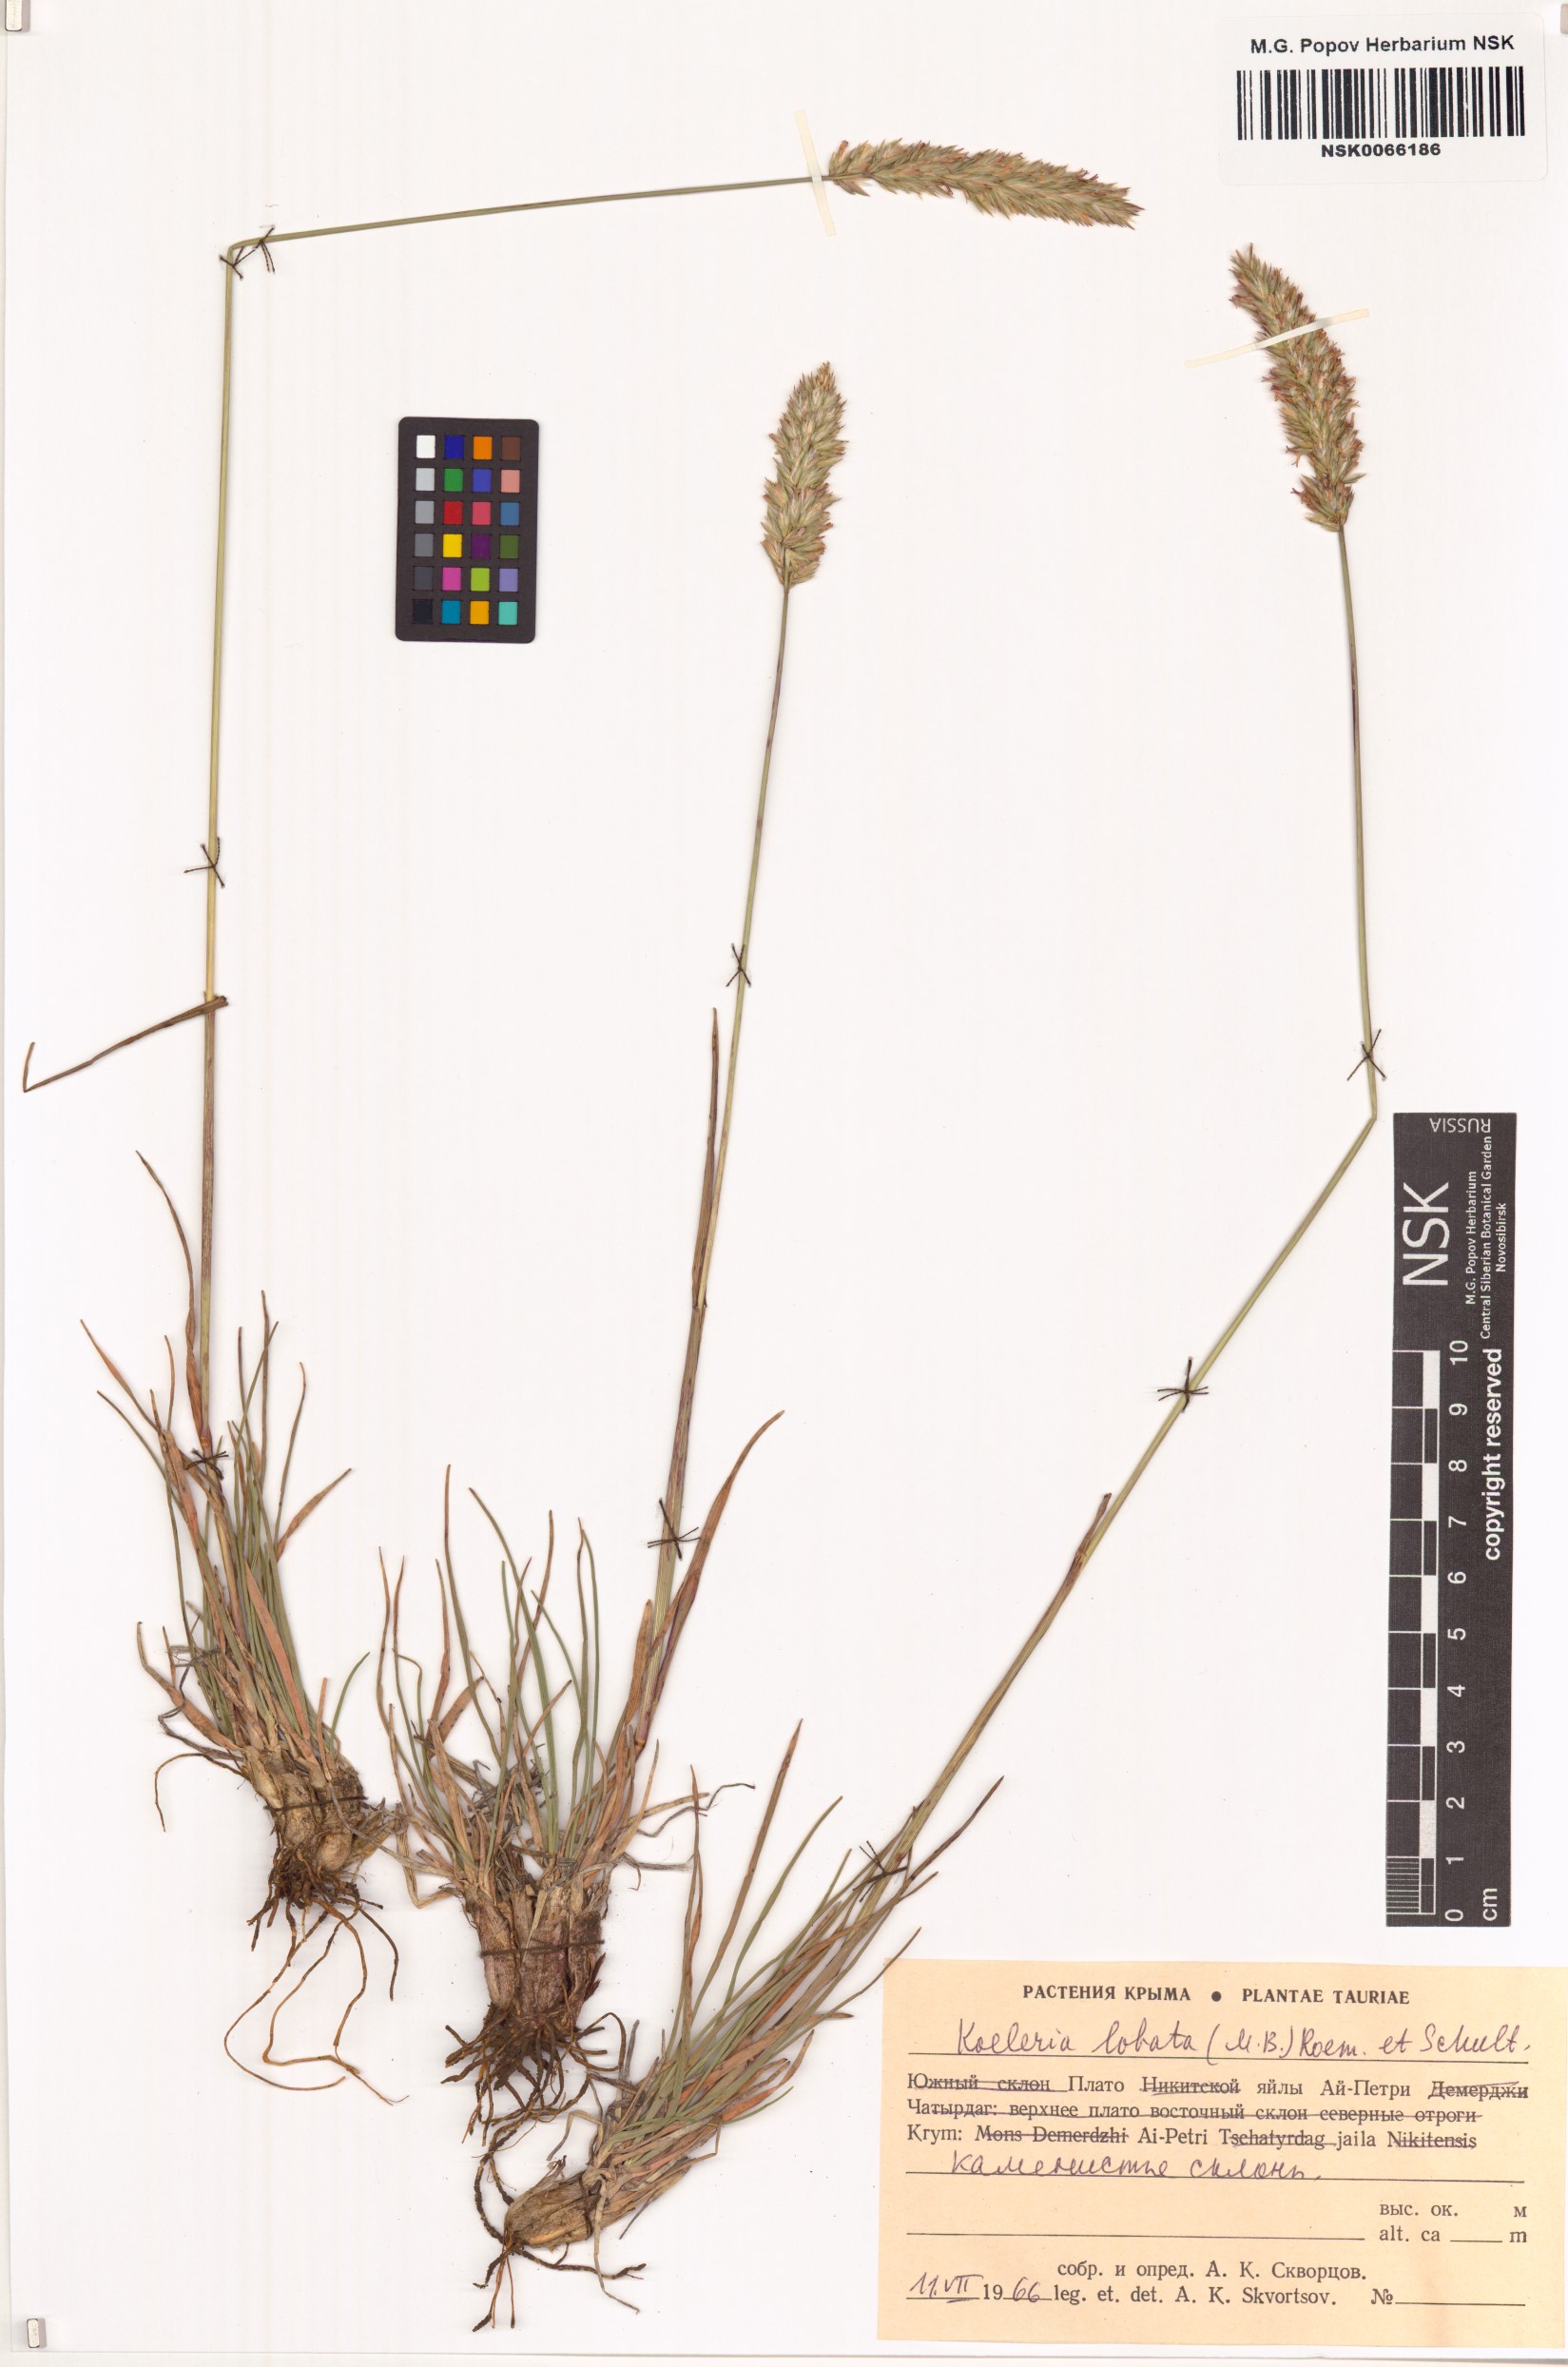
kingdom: Plantae
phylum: Tracheophyta
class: Liliopsida
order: Poales
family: Poaceae
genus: Koeleria
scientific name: Koeleria brevis
